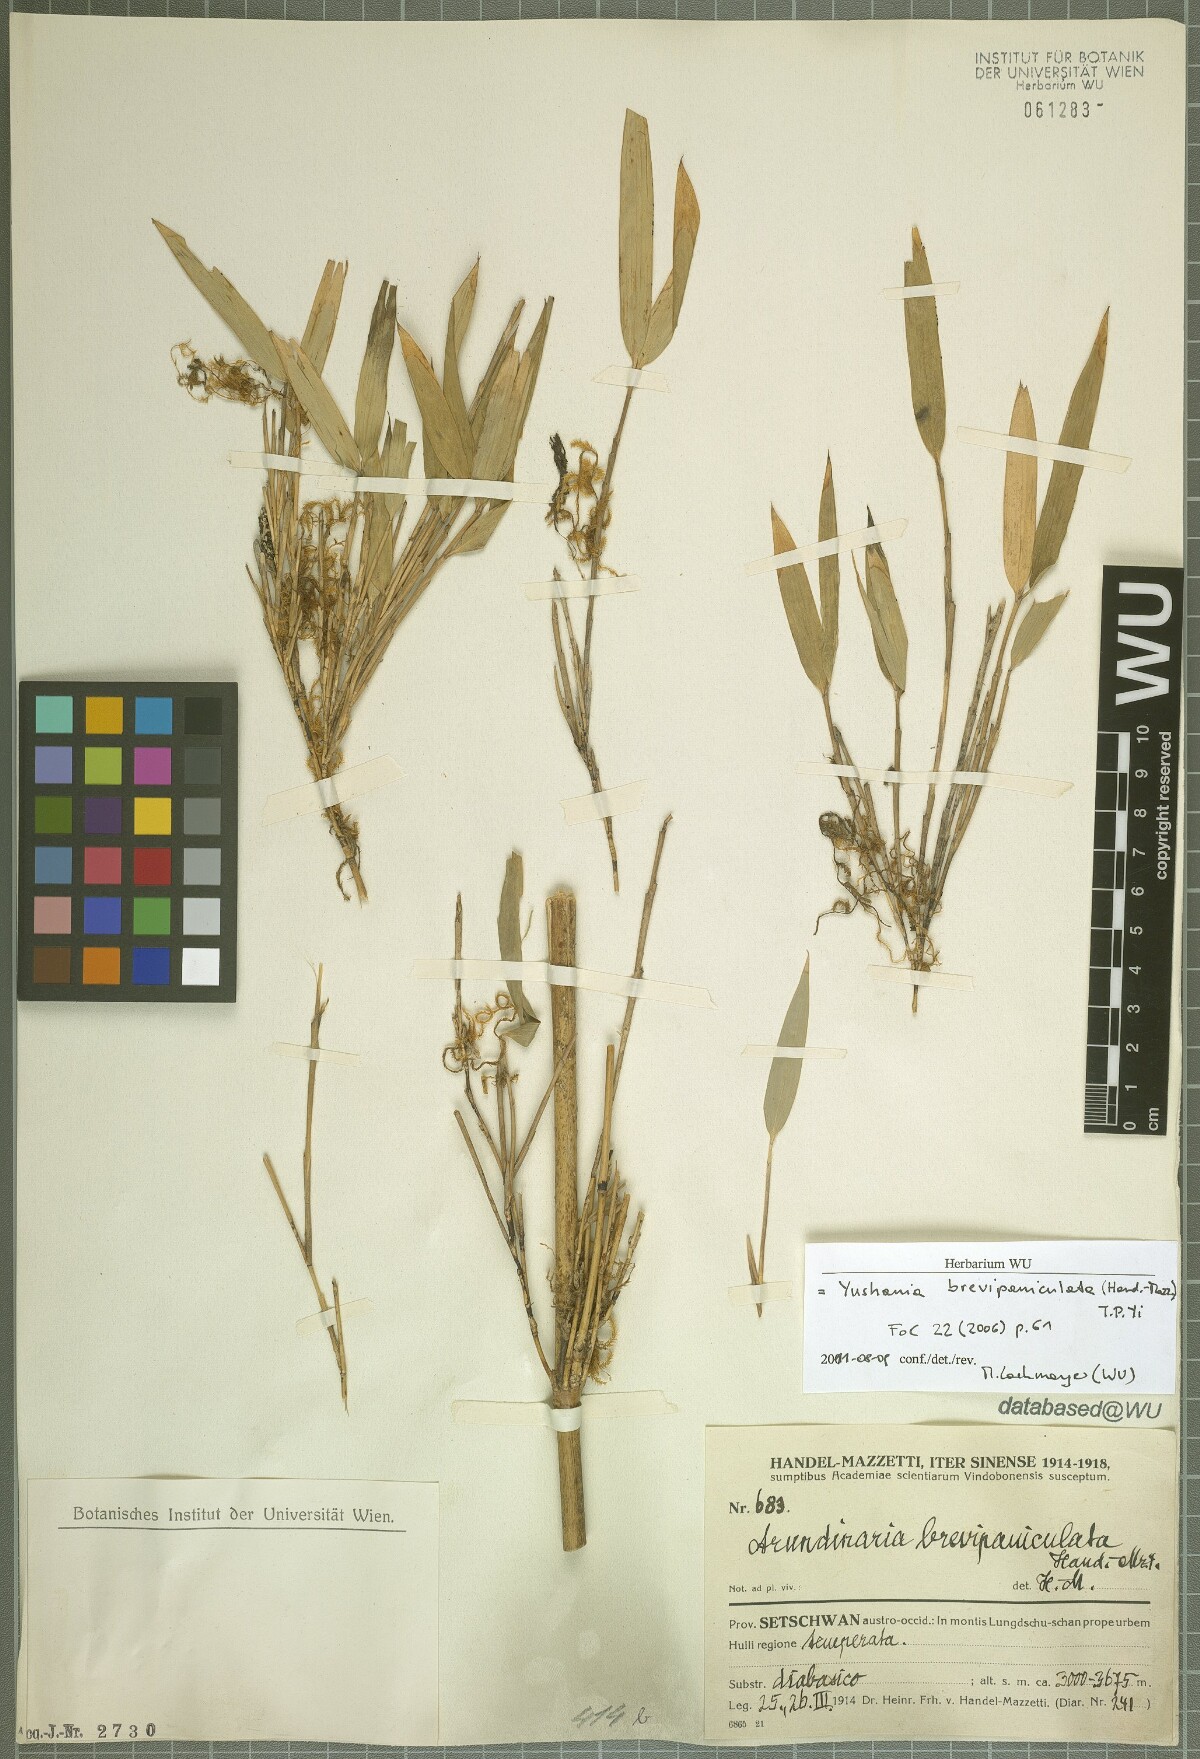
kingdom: Plantae
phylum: Tracheophyta
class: Liliopsida
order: Poales
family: Poaceae
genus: Yushania
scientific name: Yushania brevipaniculata
